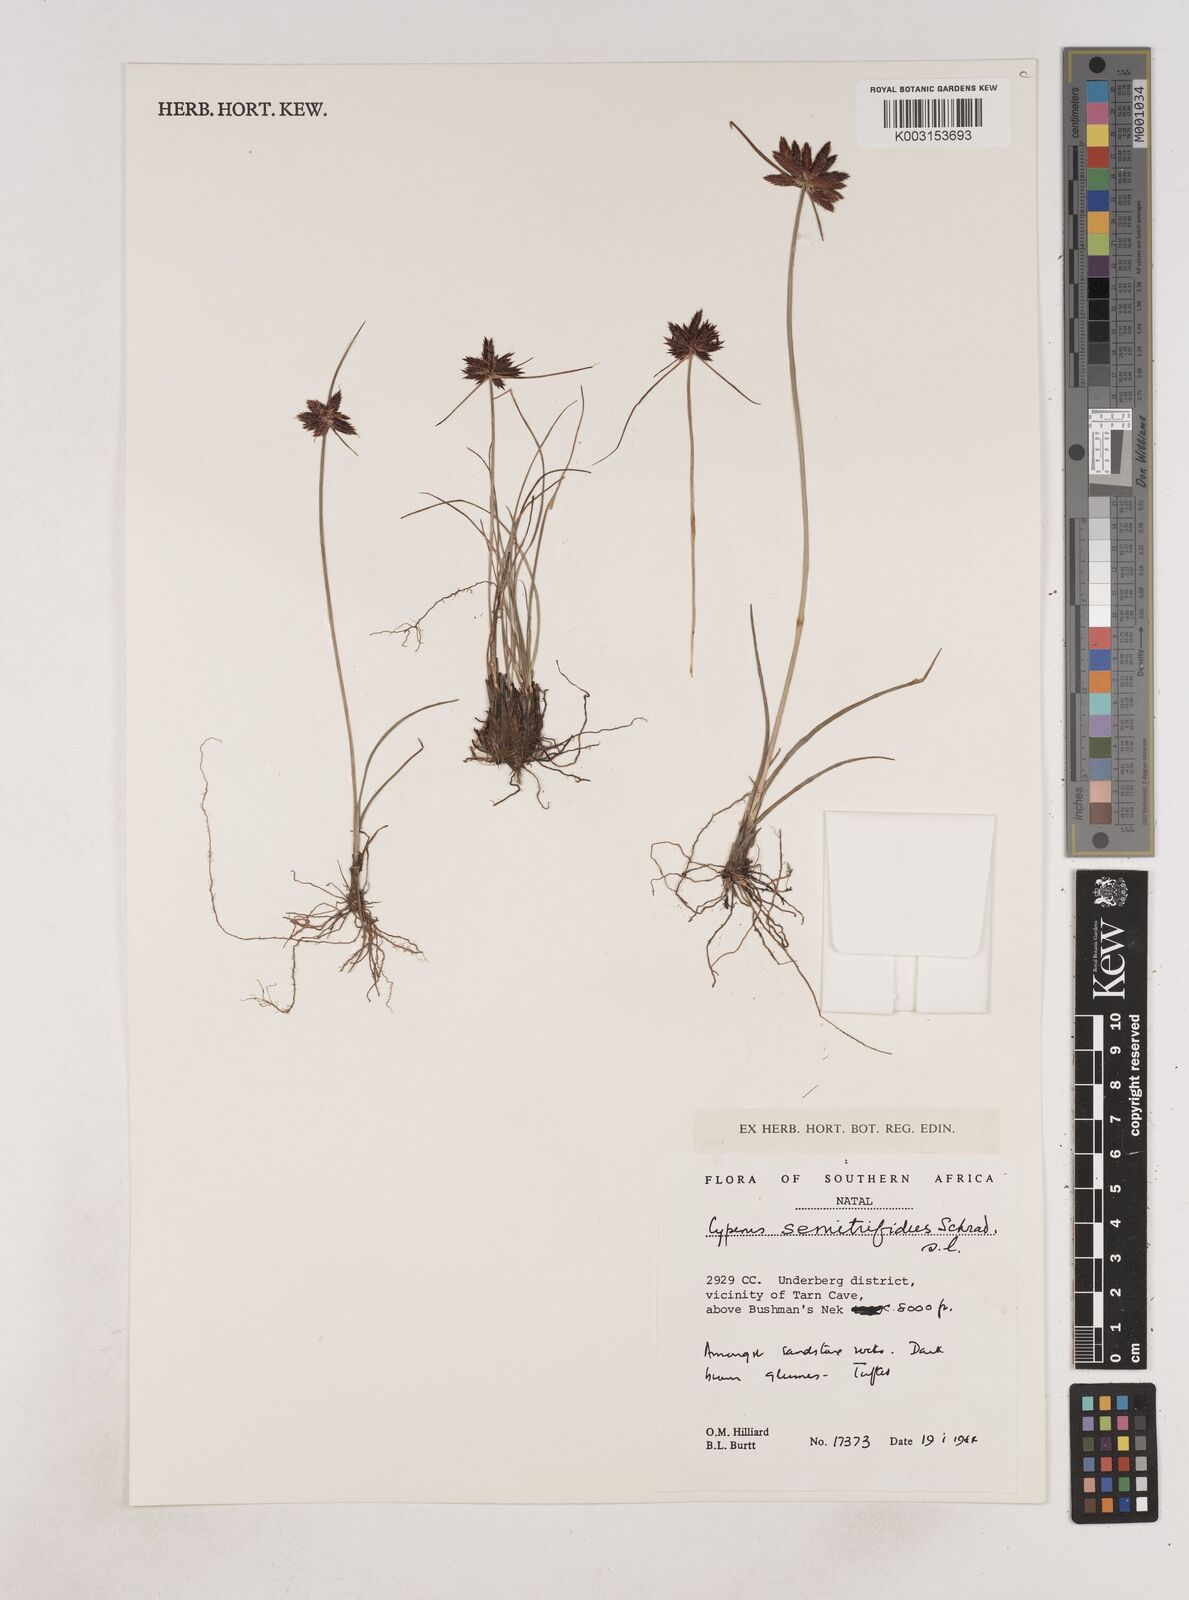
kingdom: Plantae
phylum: Tracheophyta
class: Liliopsida
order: Poales
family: Cyperaceae
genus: Cyperus
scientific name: Cyperus semitrifidus
